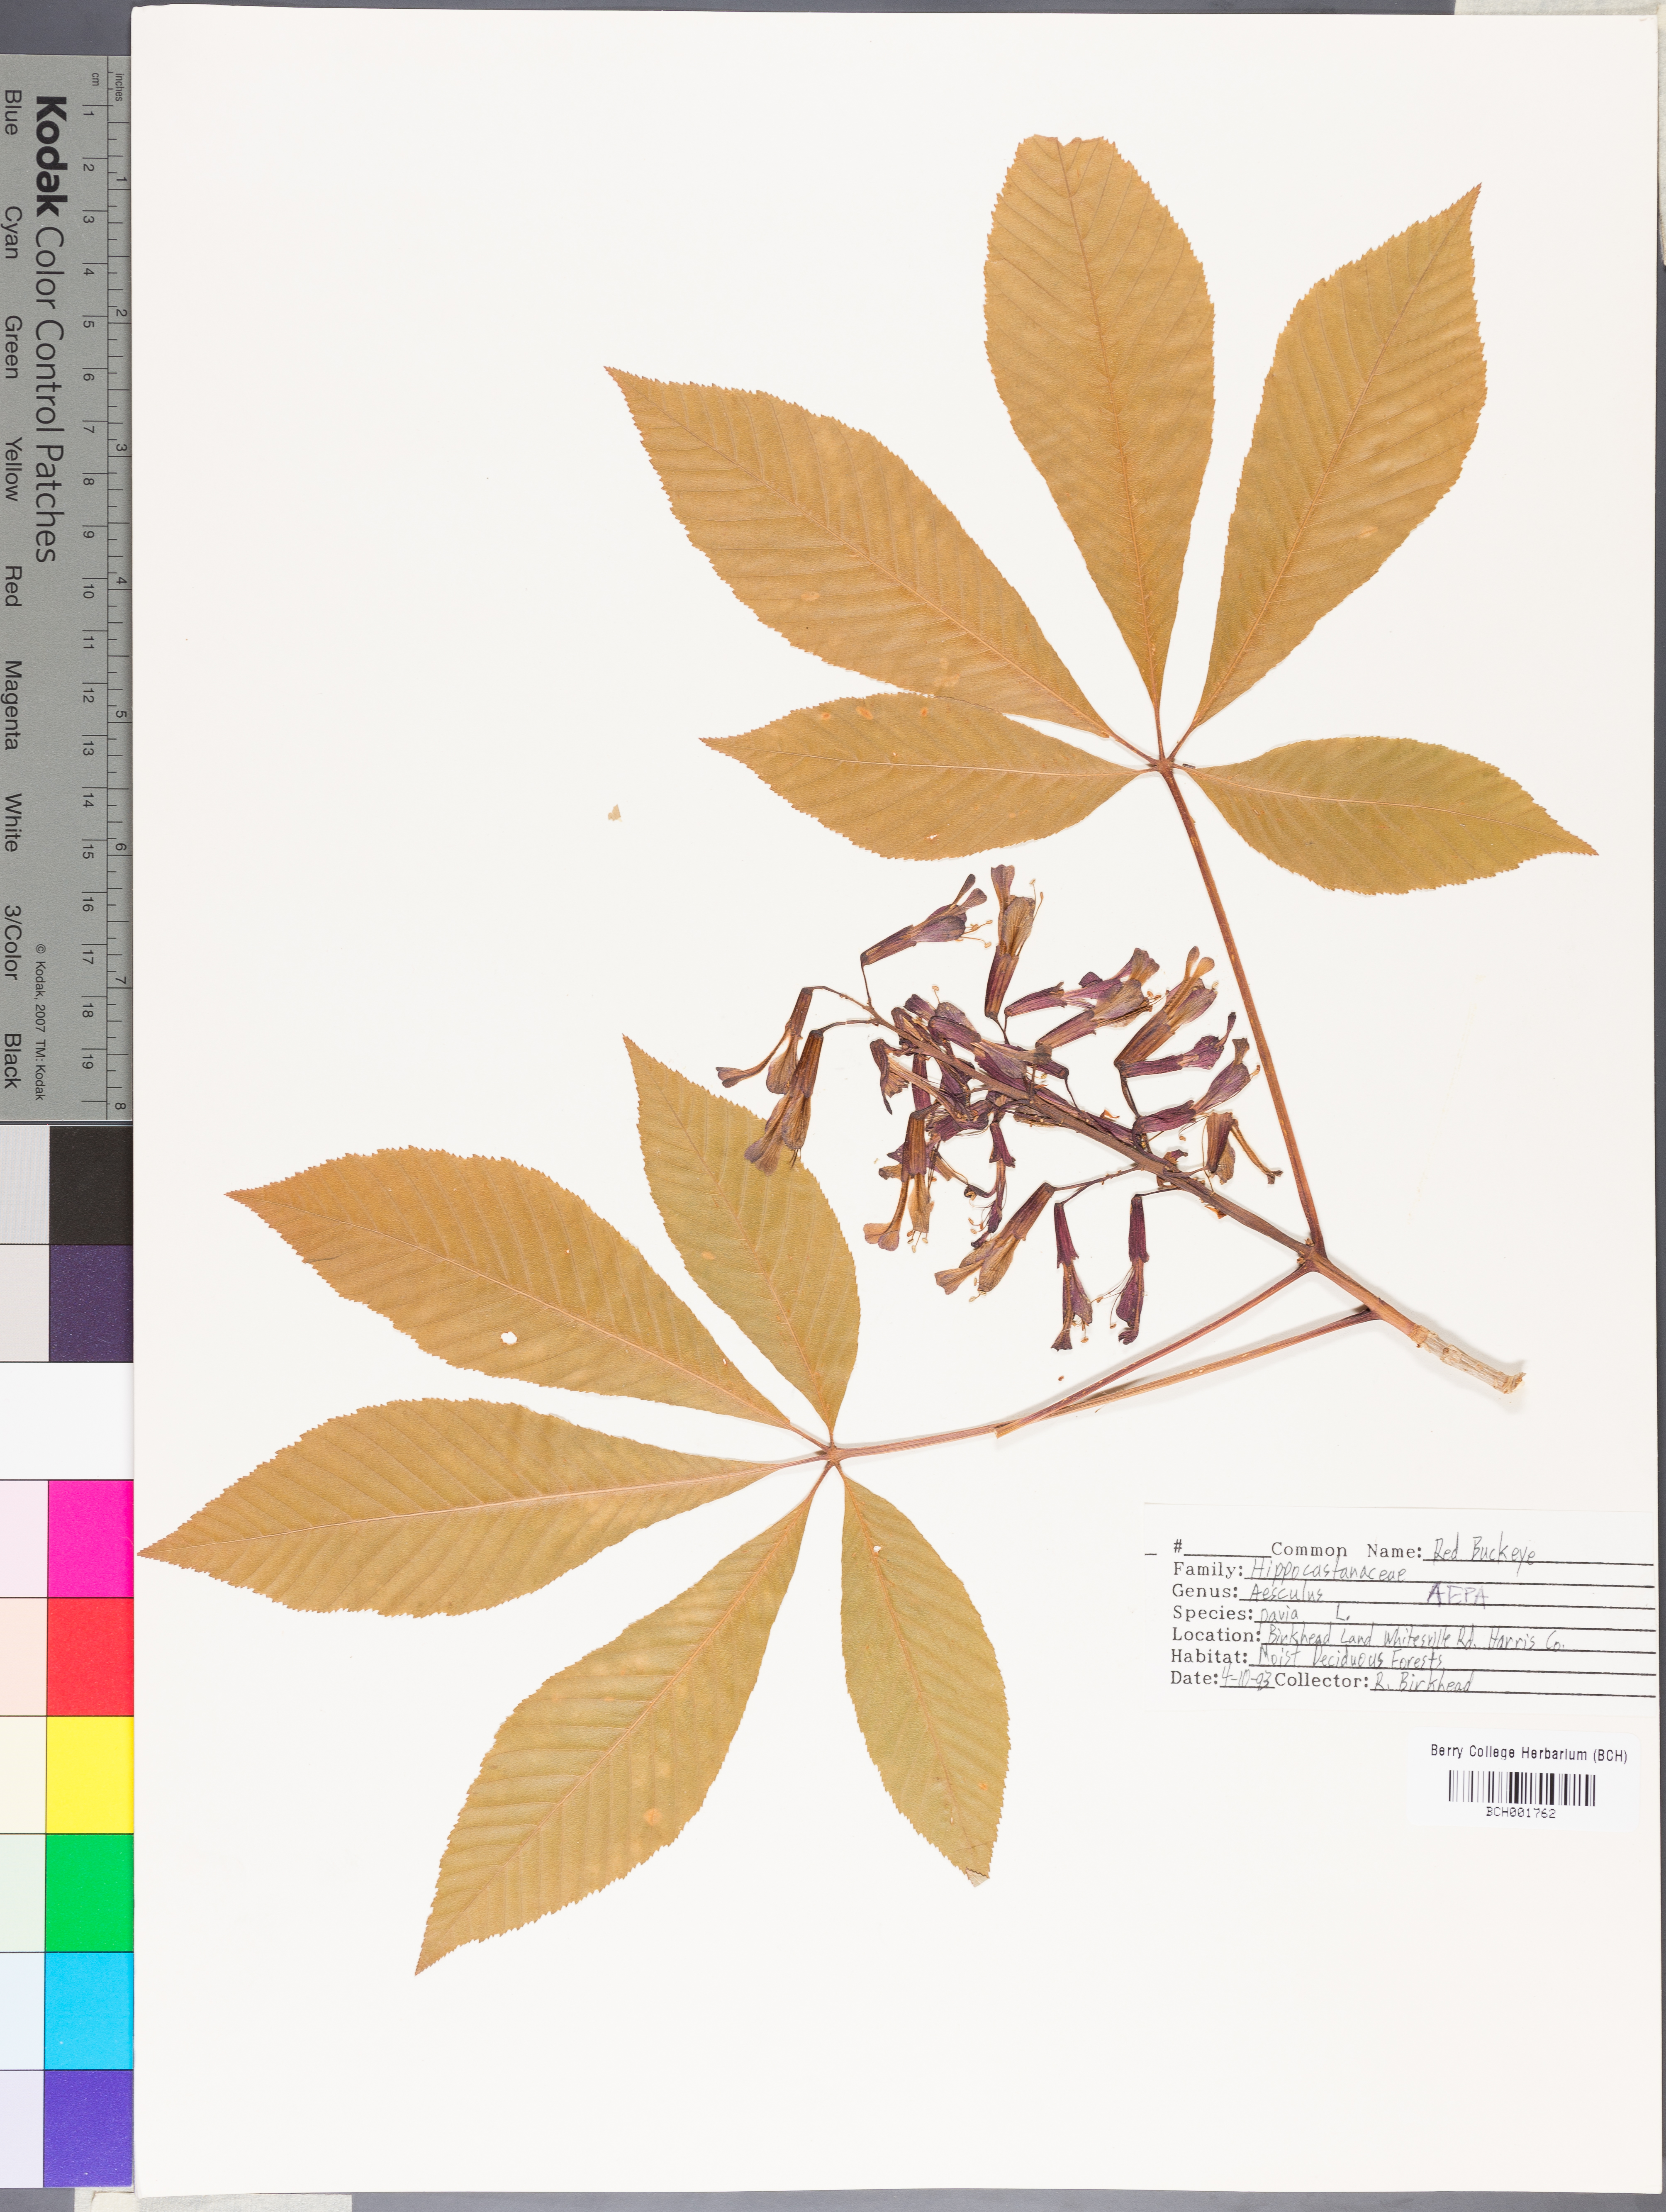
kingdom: Plantae
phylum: Tracheophyta
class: Magnoliopsida
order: Sapindales
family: Sapindaceae
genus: Aesculus
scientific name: Aesculus pavia
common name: Red buckeye
